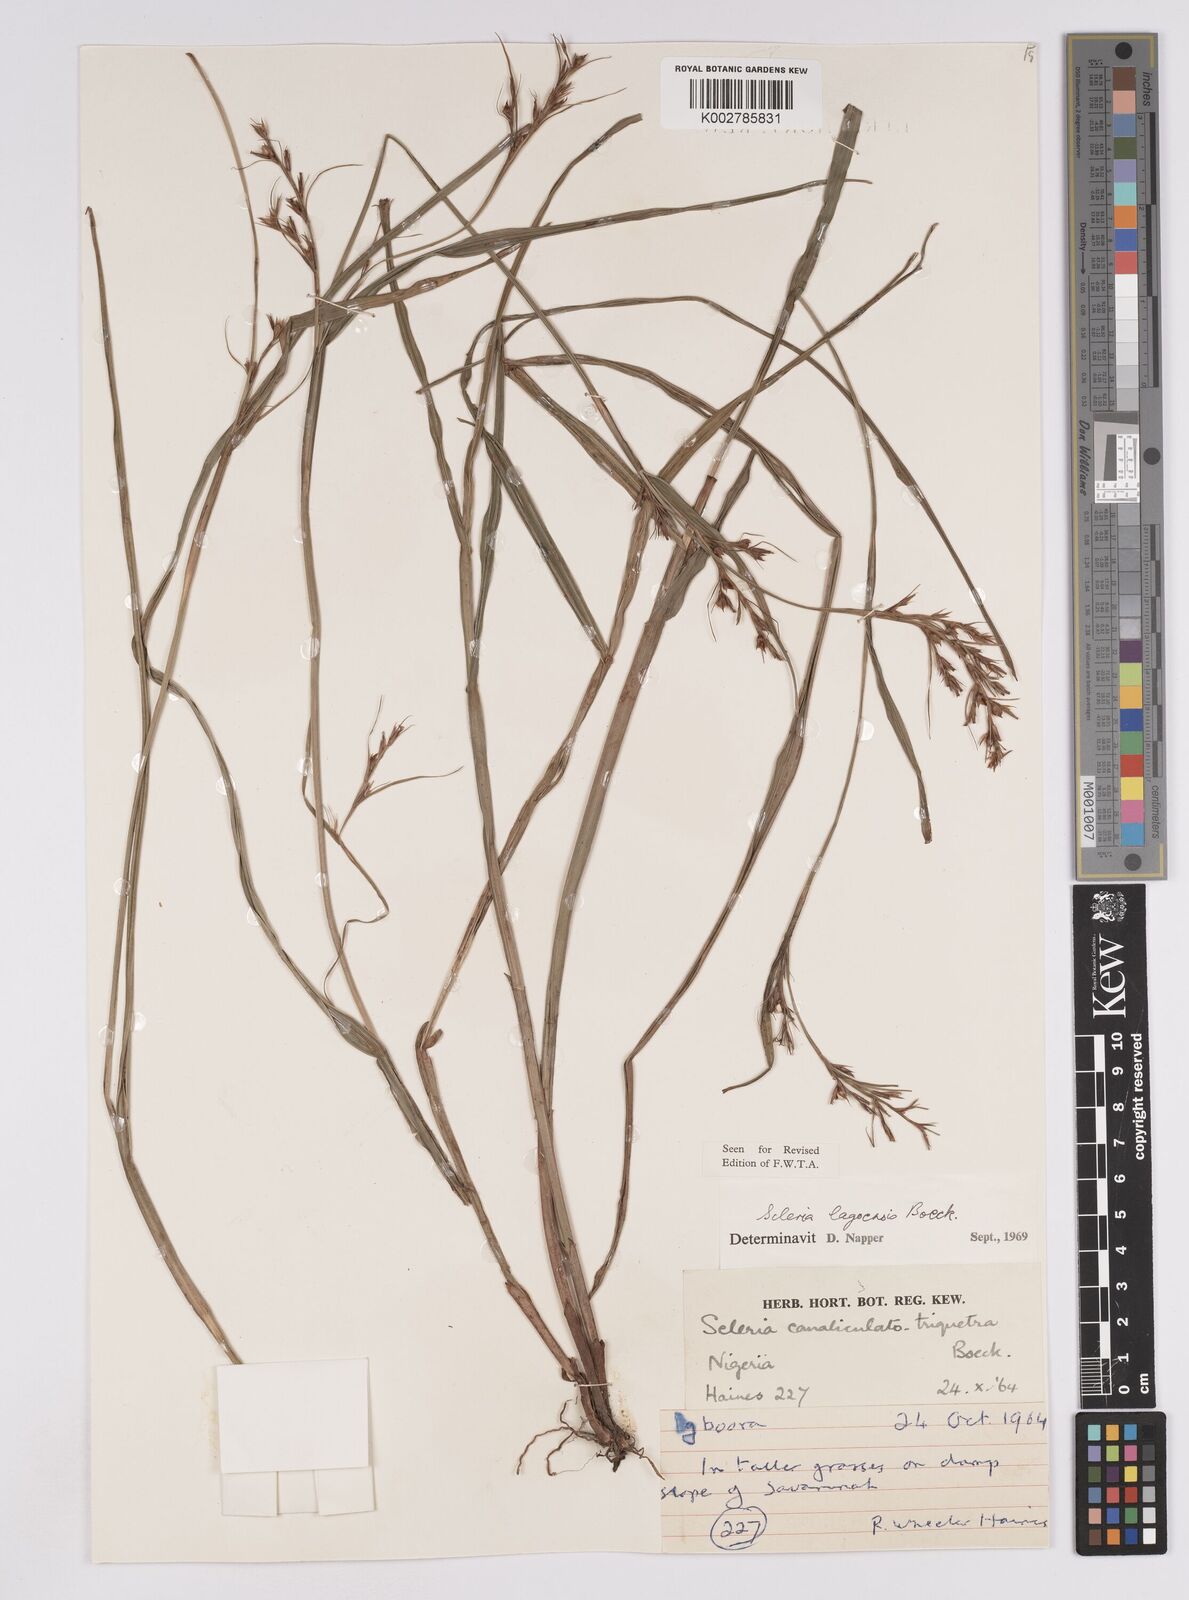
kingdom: Plantae
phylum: Tracheophyta
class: Liliopsida
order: Poales
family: Cyperaceae
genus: Scleria
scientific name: Scleria lagoensis
